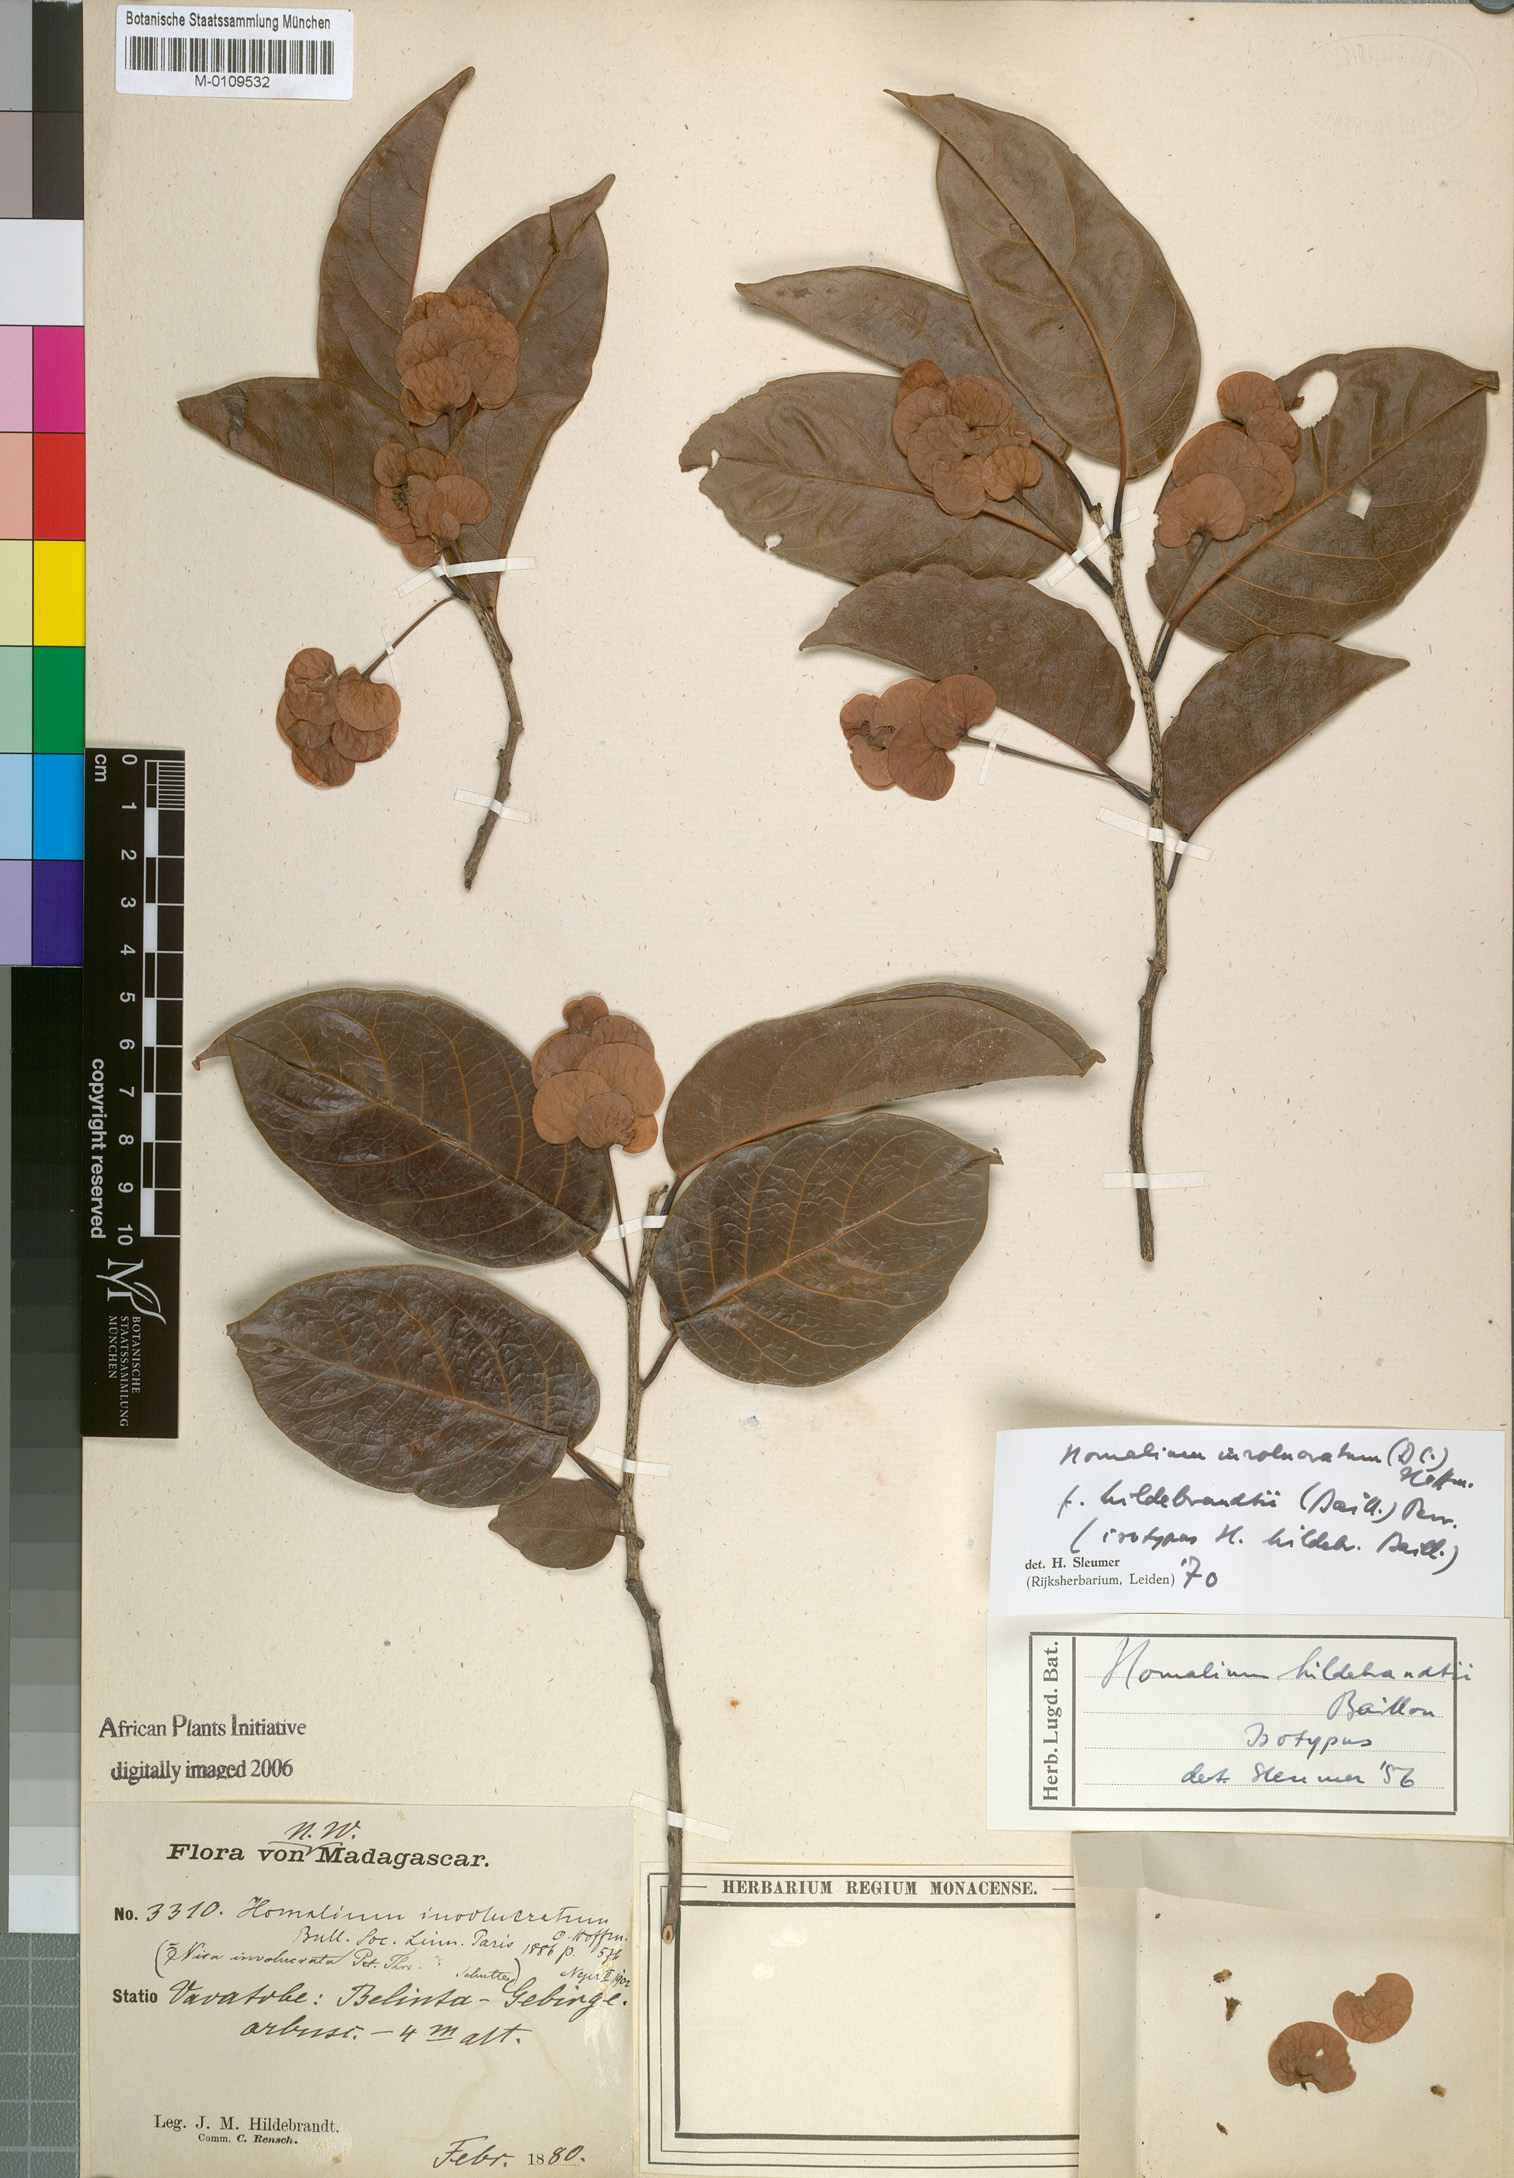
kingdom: Plantae
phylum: Tracheophyta
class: Magnoliopsida
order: Malpighiales
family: Salicaceae
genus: Homalium
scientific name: Homalium involucratum
